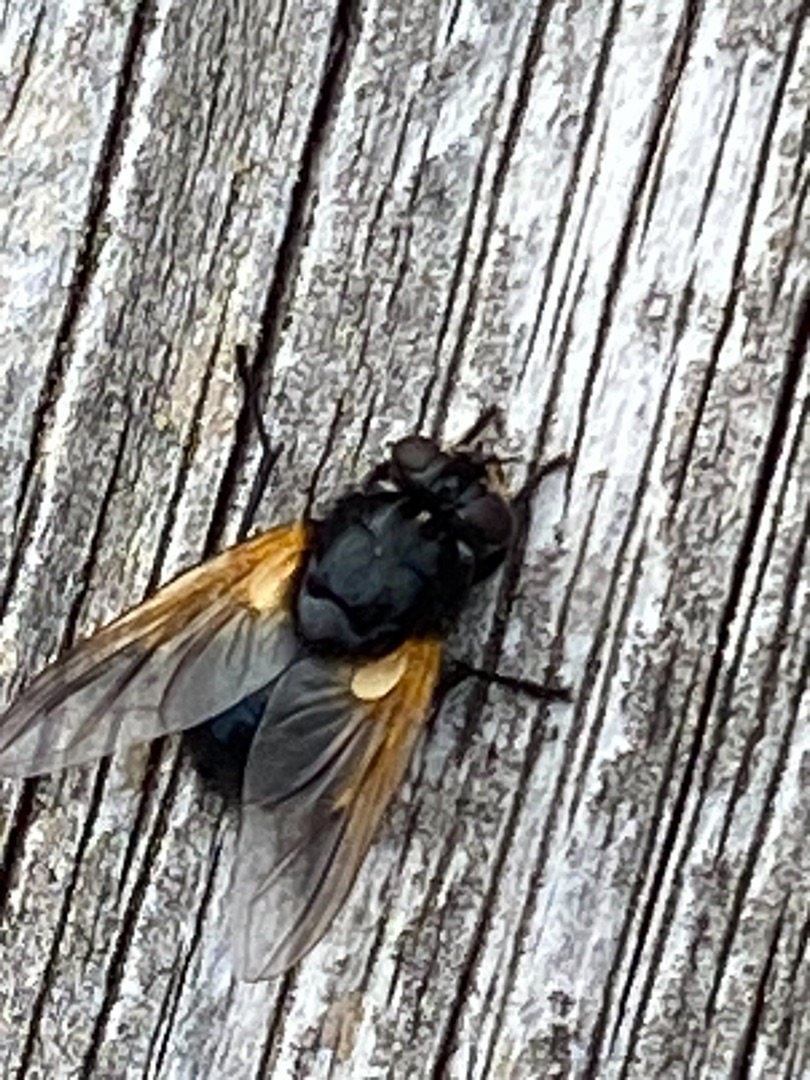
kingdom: Animalia
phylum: Arthropoda
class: Insecta
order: Diptera
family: Muscidae
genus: Mesembrina
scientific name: Mesembrina meridiana
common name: Gulvinget flue
